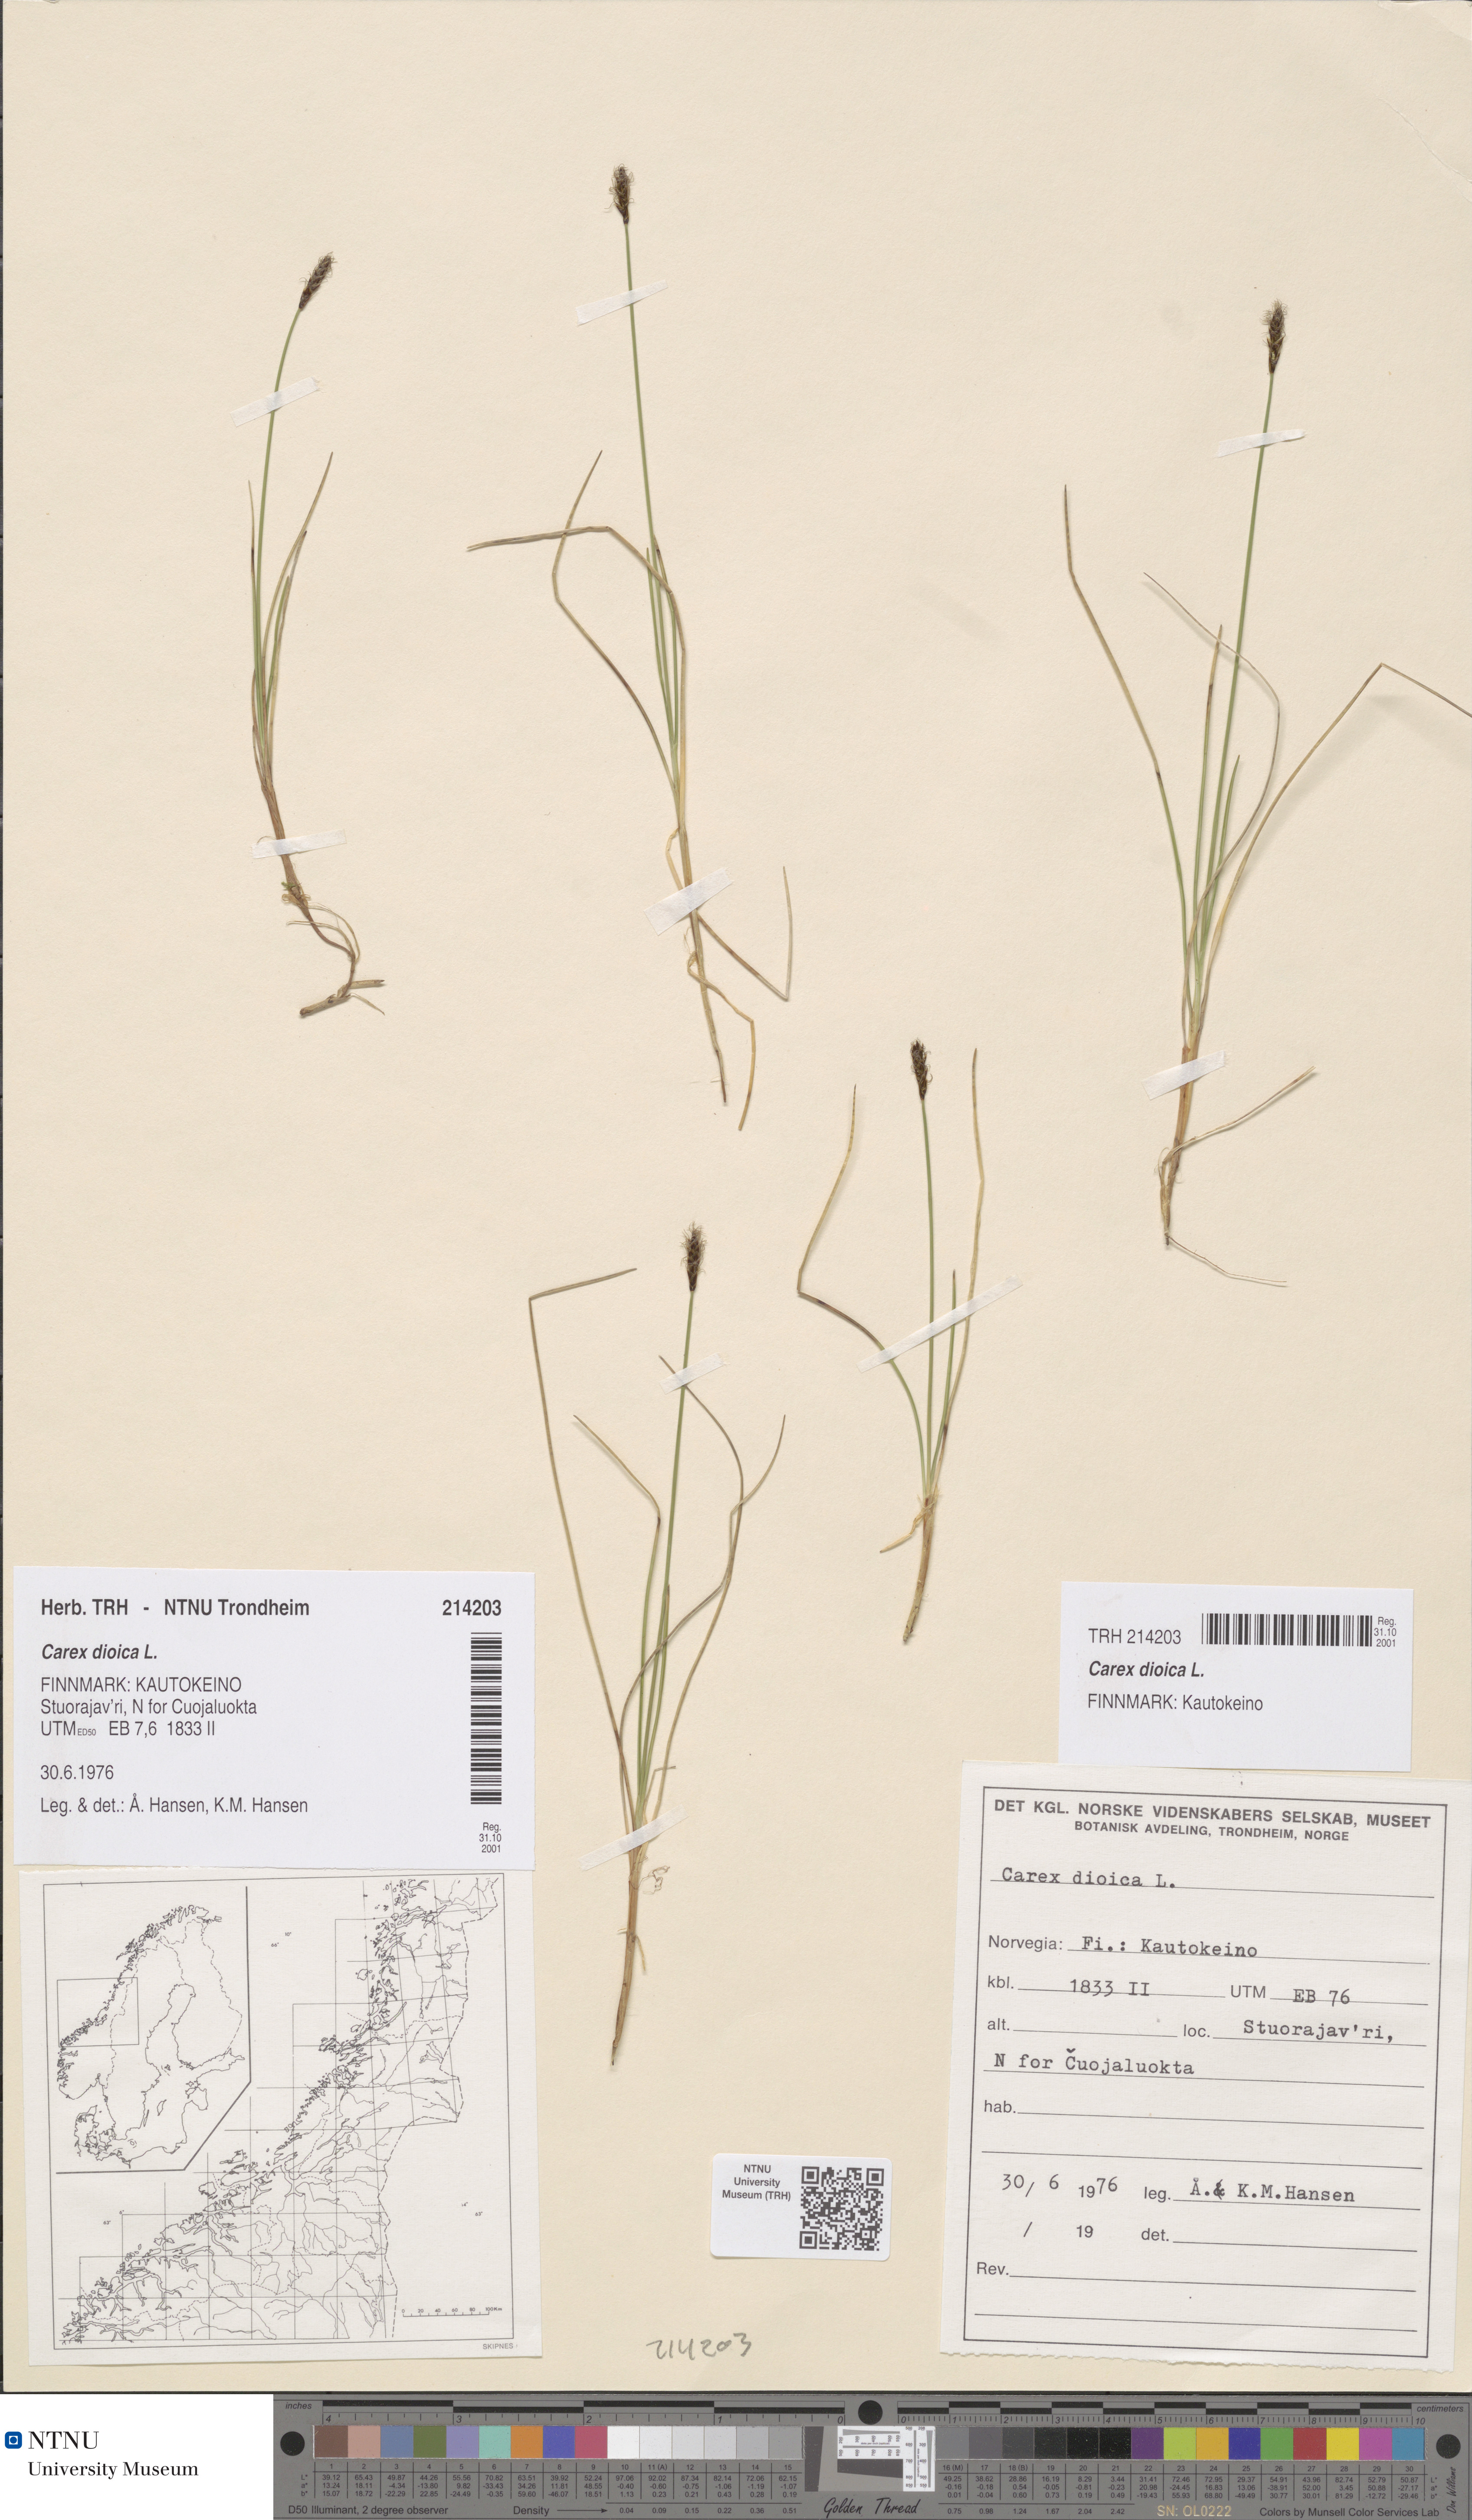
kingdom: Plantae
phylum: Tracheophyta
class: Liliopsida
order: Poales
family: Cyperaceae
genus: Carex
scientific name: Carex dioica
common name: Dioecious sedge
